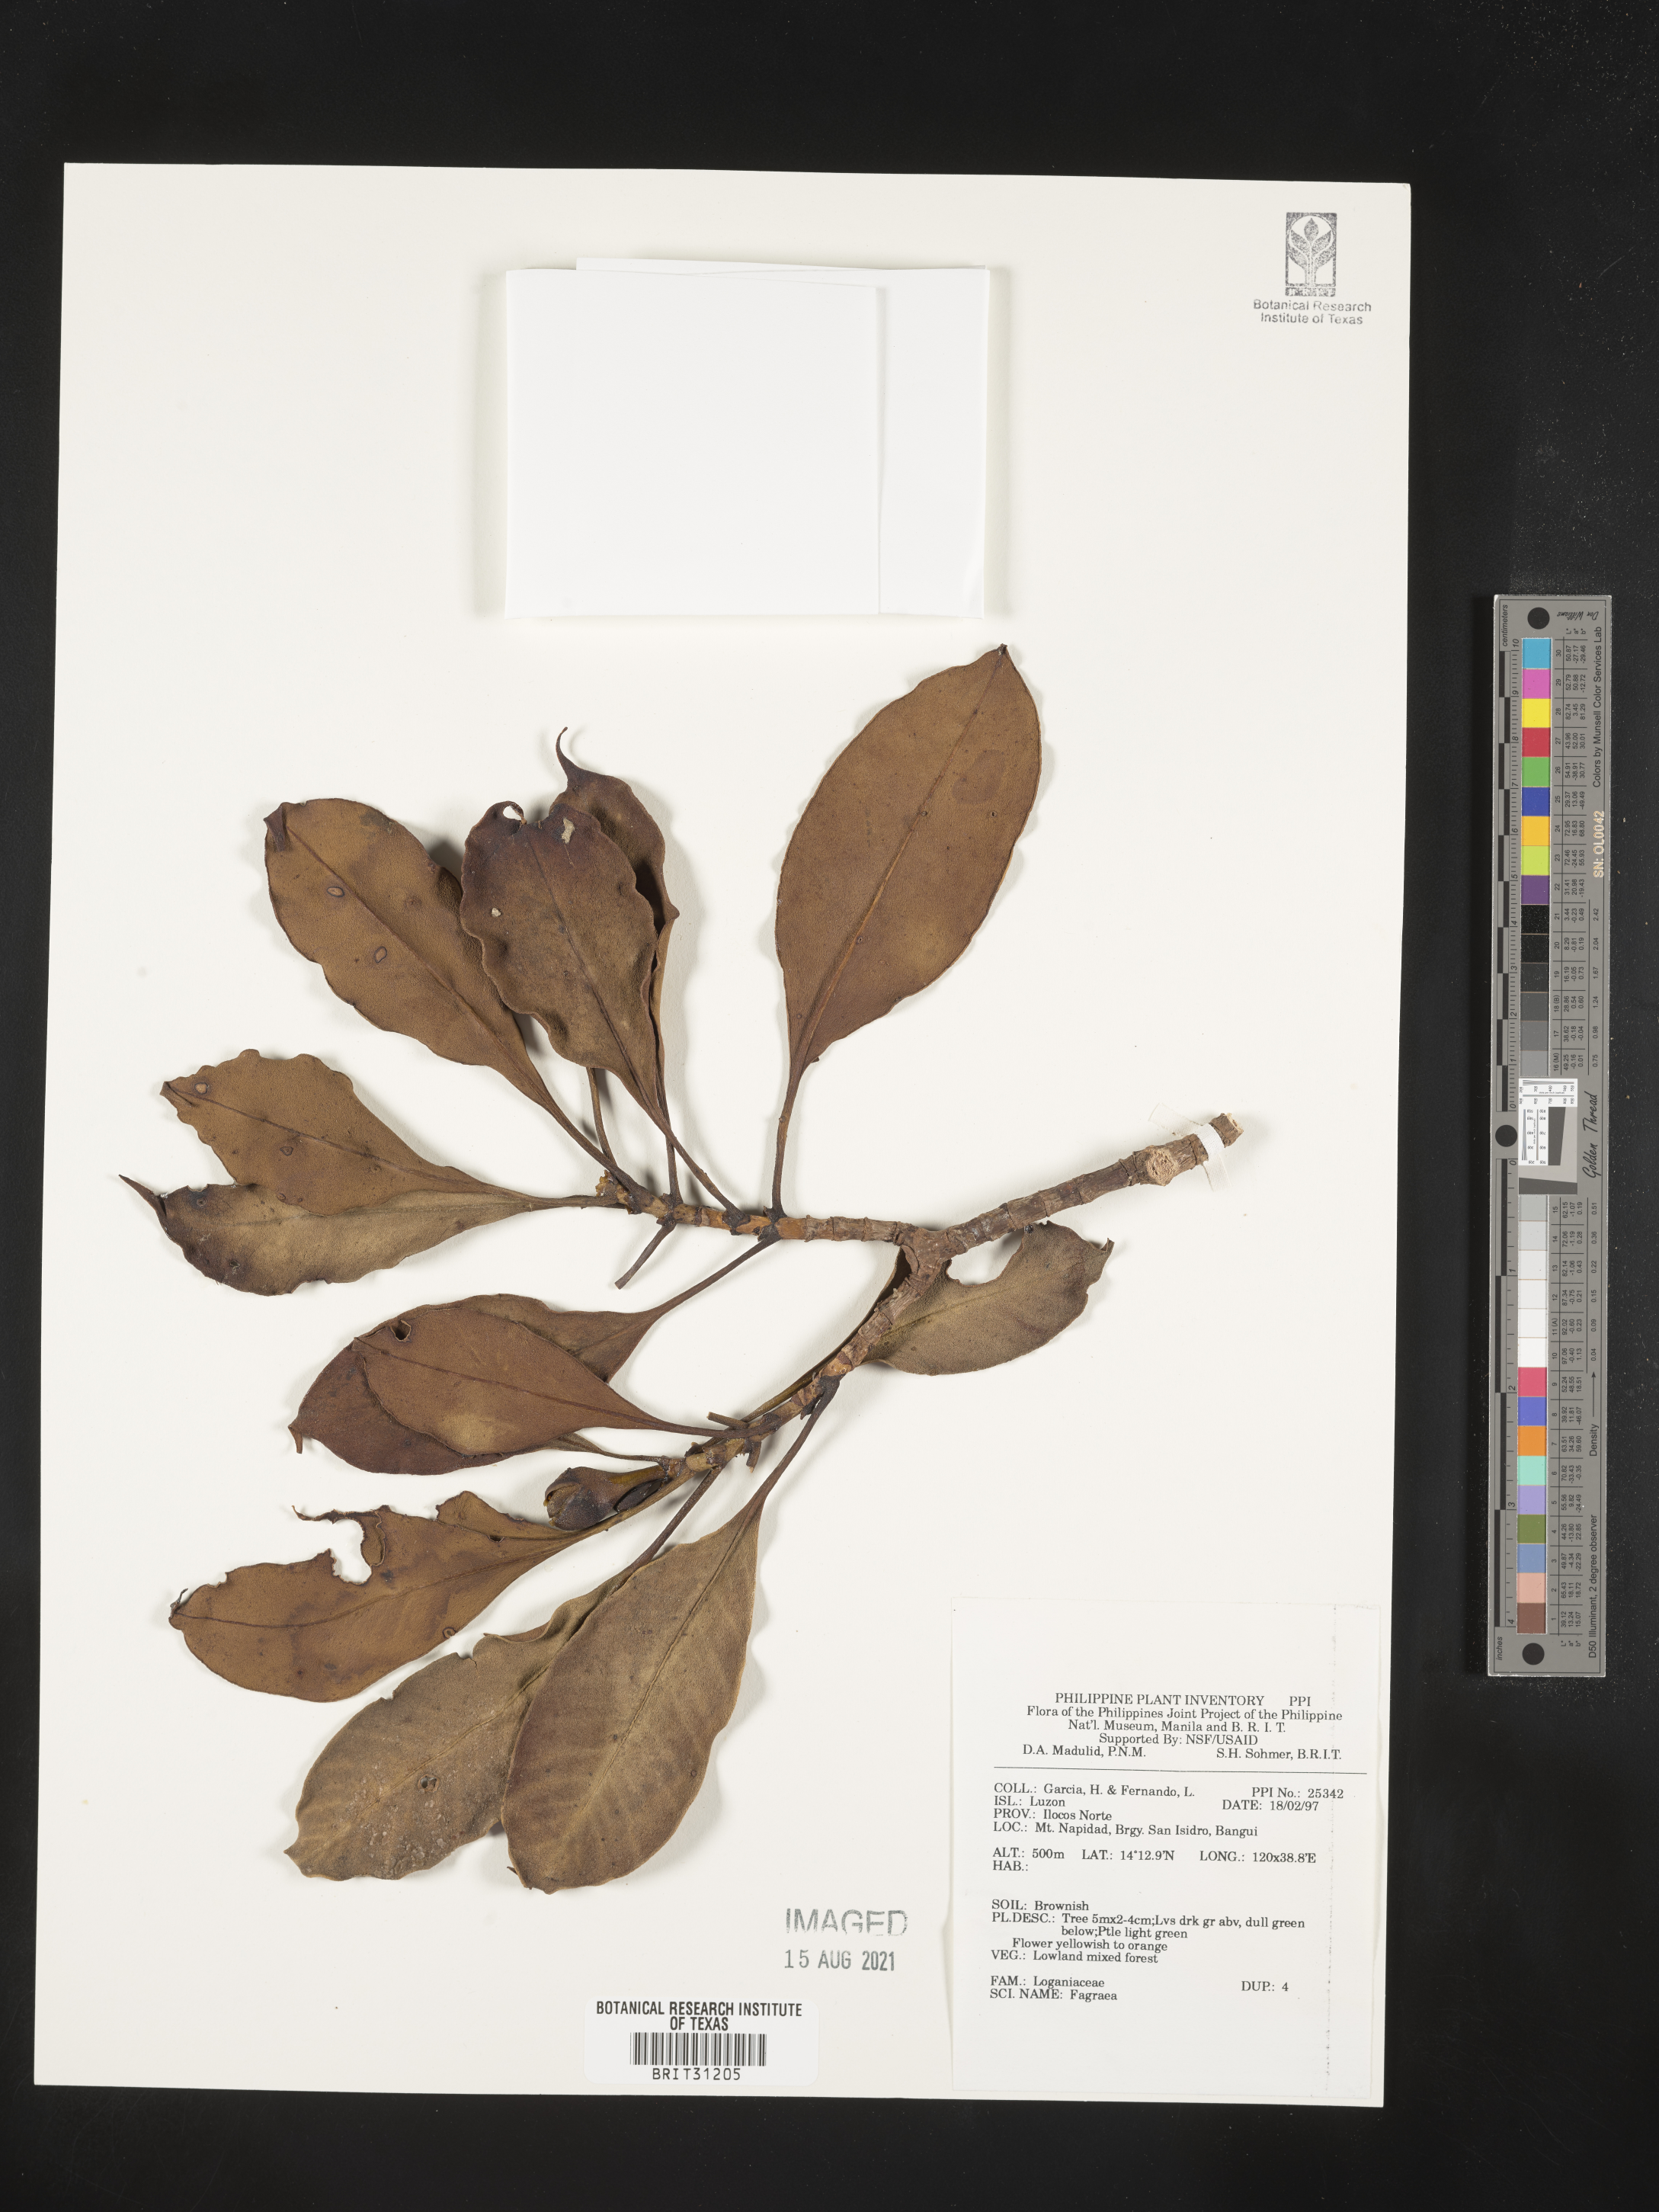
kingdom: Plantae
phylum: Tracheophyta
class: Magnoliopsida
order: Gentianales
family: Gentianaceae
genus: Fagraea
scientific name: Fagraea
